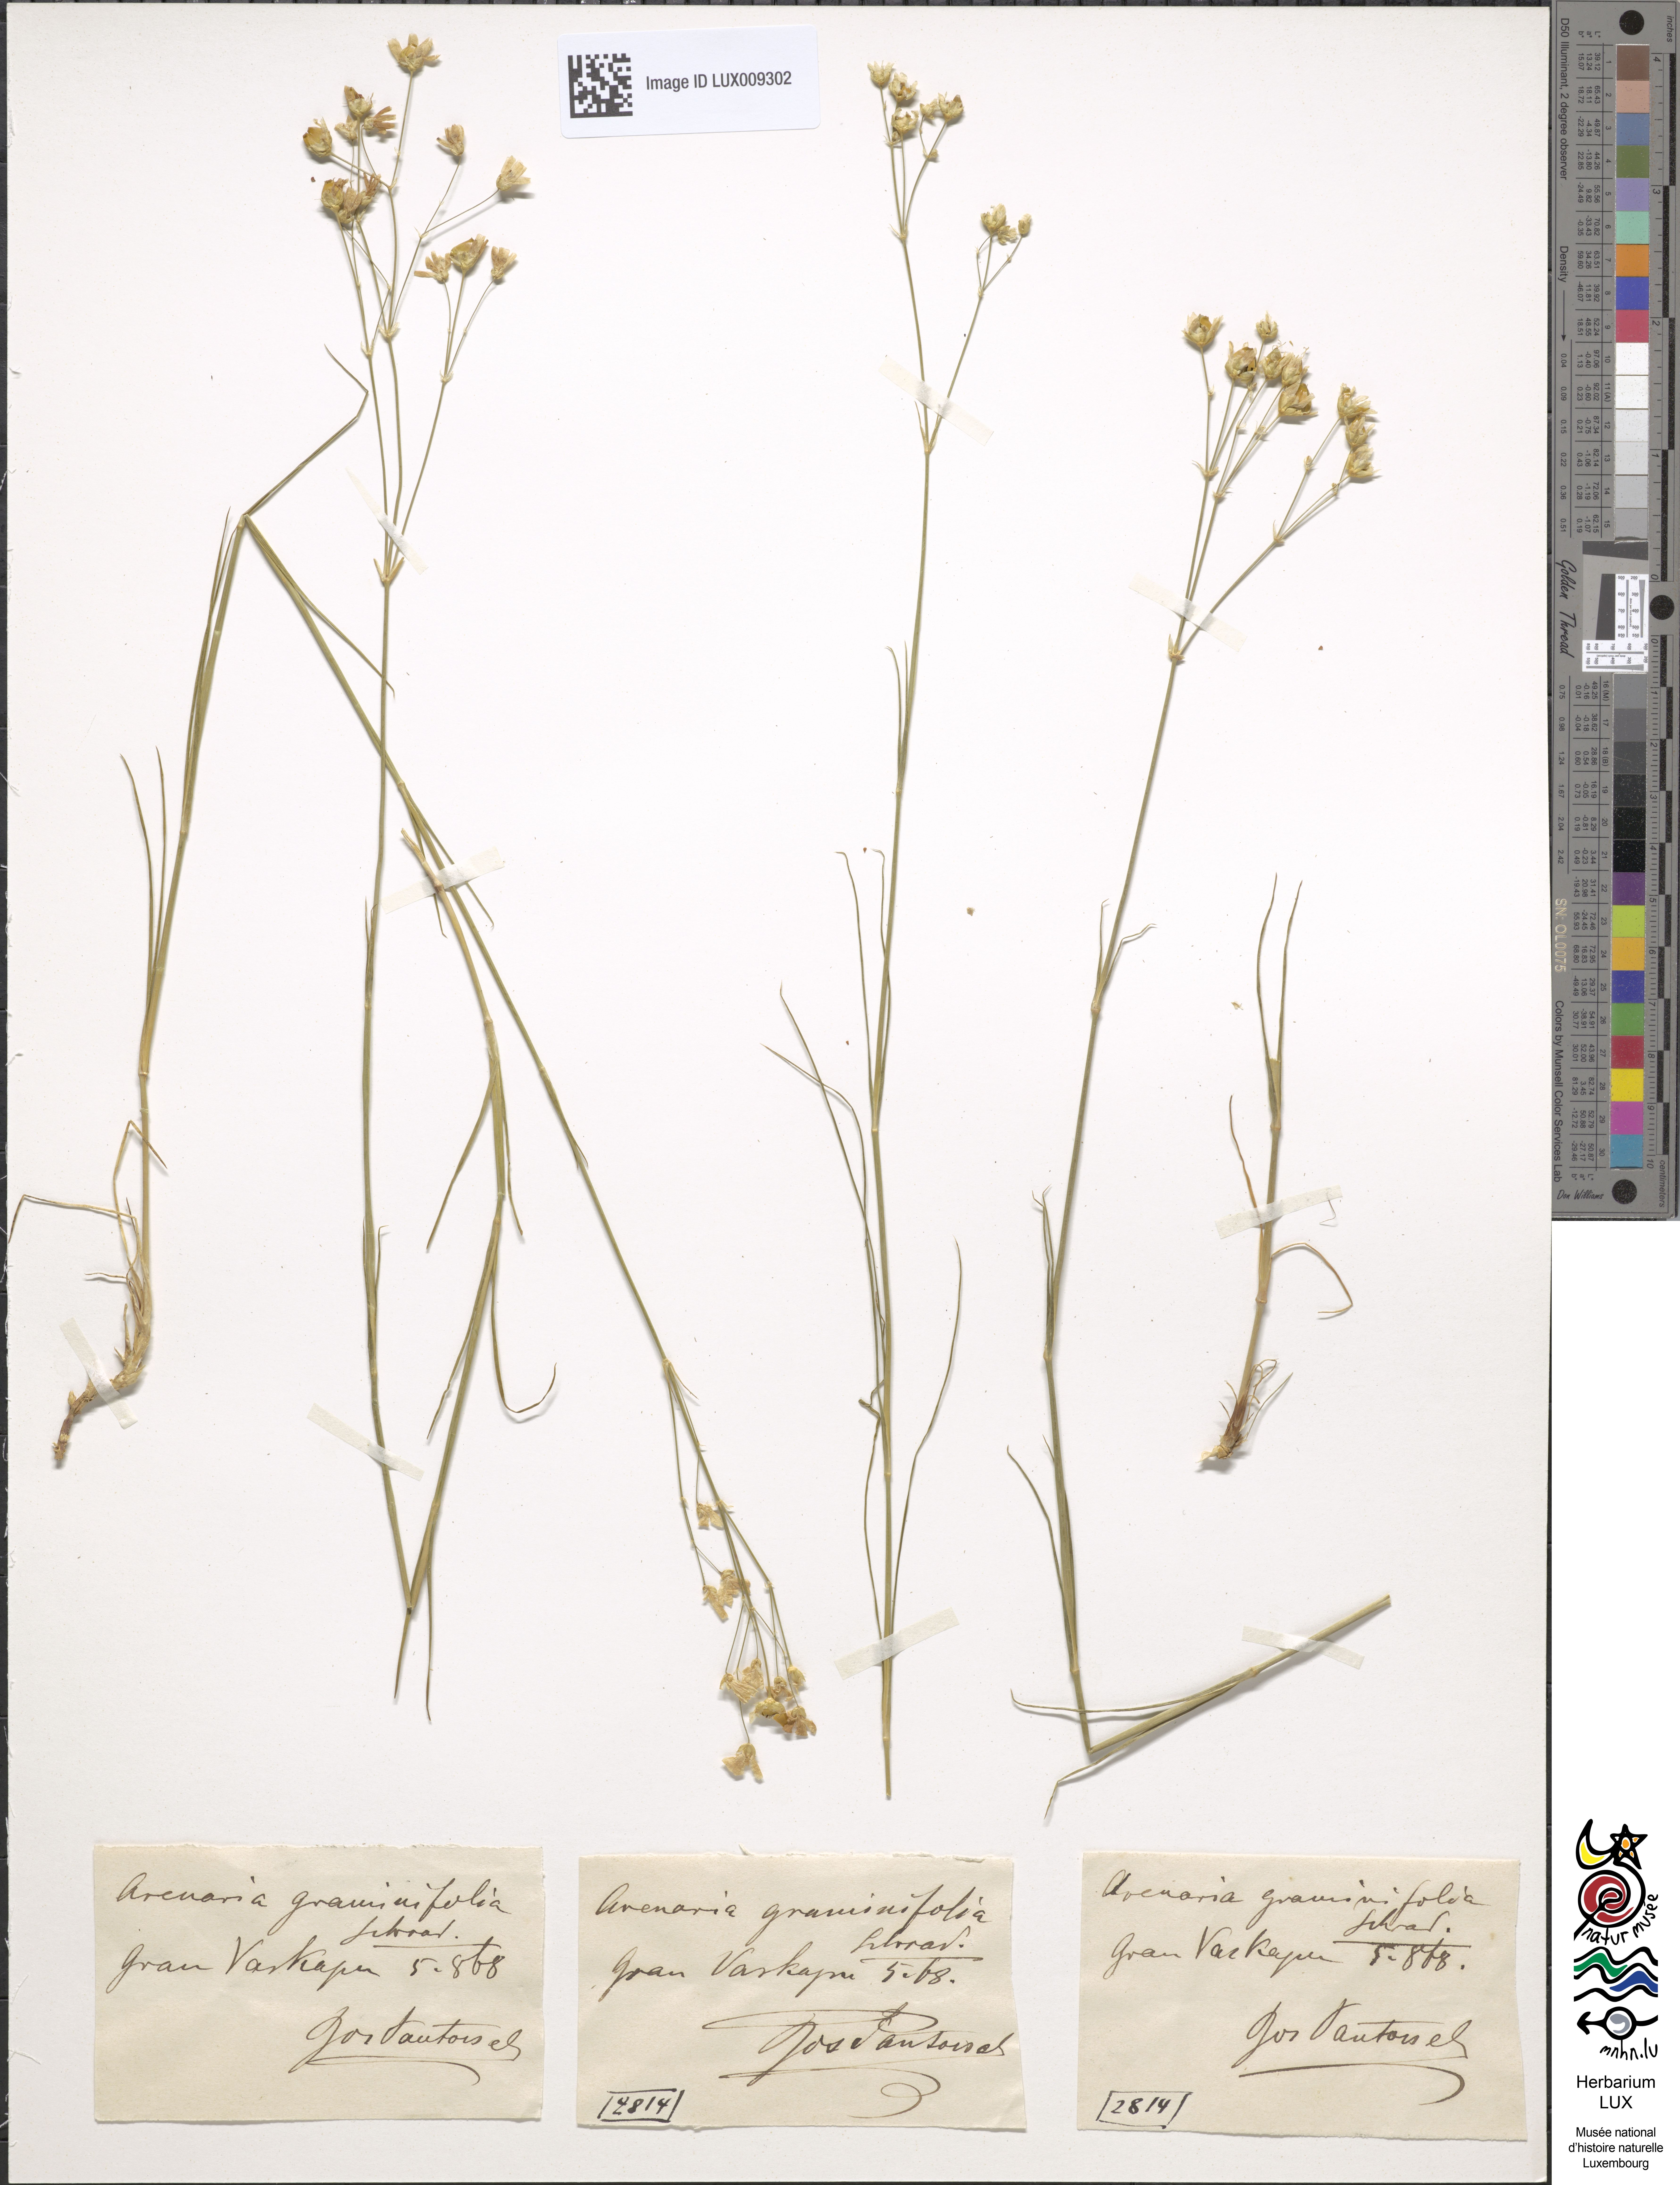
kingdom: Plantae
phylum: Tracheophyta
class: Magnoliopsida
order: Caryophyllales
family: Caryophyllaceae
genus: Eremogone
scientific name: Eremogone saxatilis
